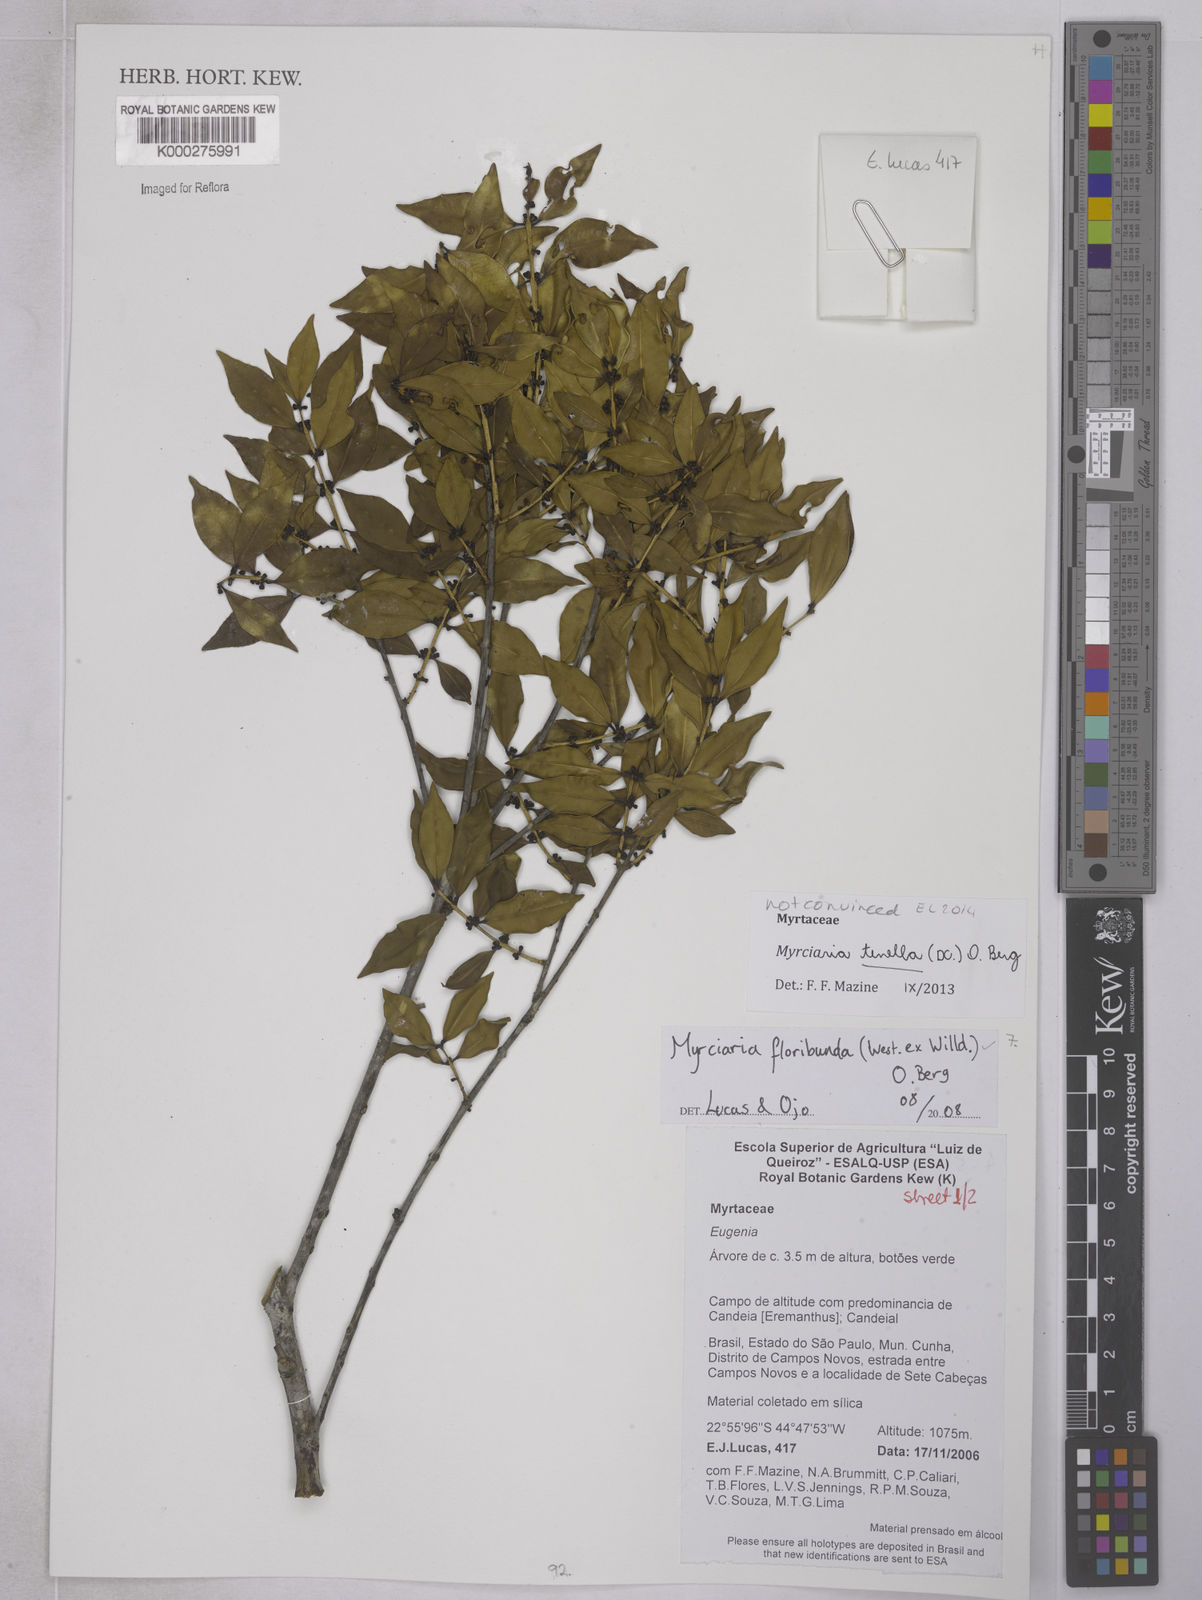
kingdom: Plantae
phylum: Tracheophyta
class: Magnoliopsida
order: Myrtales
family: Myrtaceae
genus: Myrciaria
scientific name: Myrciaria floribunda
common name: Guavaberry
